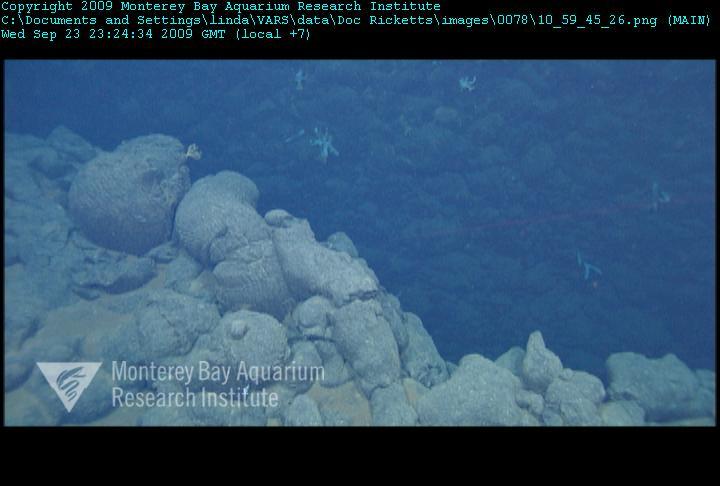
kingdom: Animalia
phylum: Porifera
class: Hexactinellida
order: Sceptrulophora
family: Farreidae
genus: Farrea
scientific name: Farrea truncata
